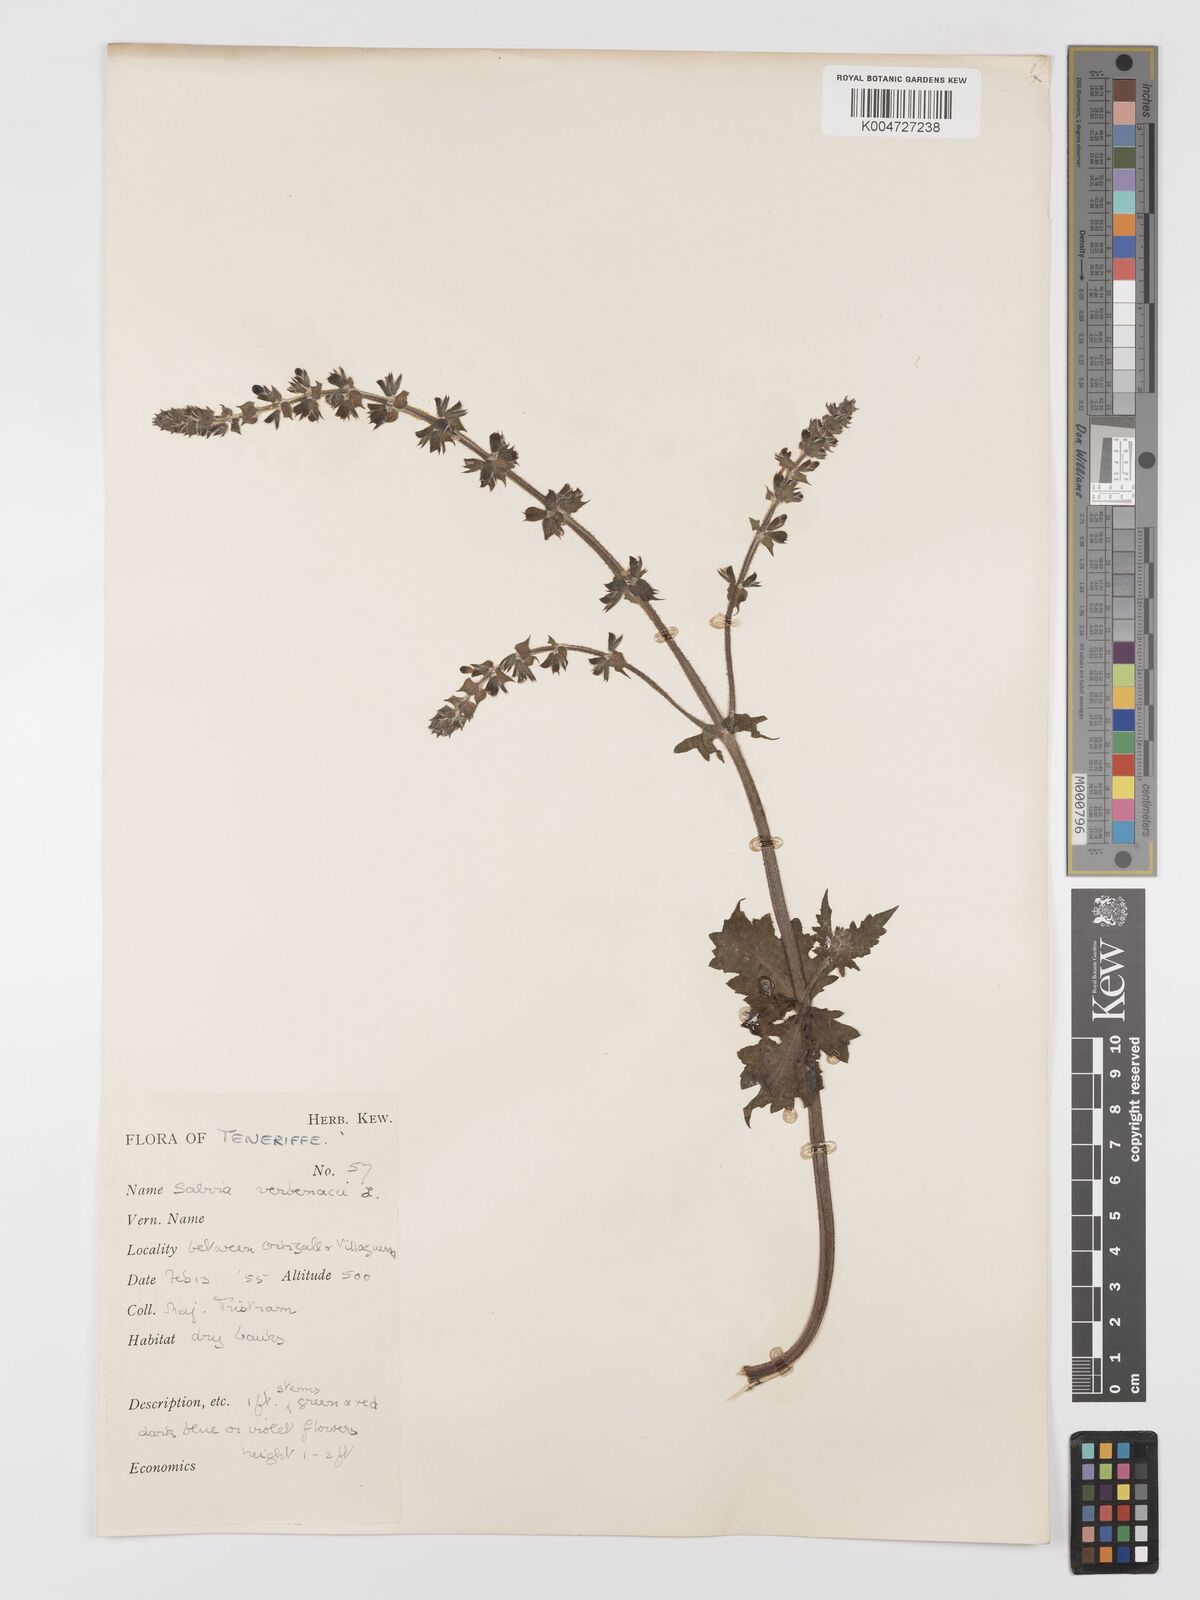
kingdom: Plantae
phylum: Tracheophyta
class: Magnoliopsida
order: Lamiales
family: Lamiaceae
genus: Salvia
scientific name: Salvia verbenaca
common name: Wild clary
